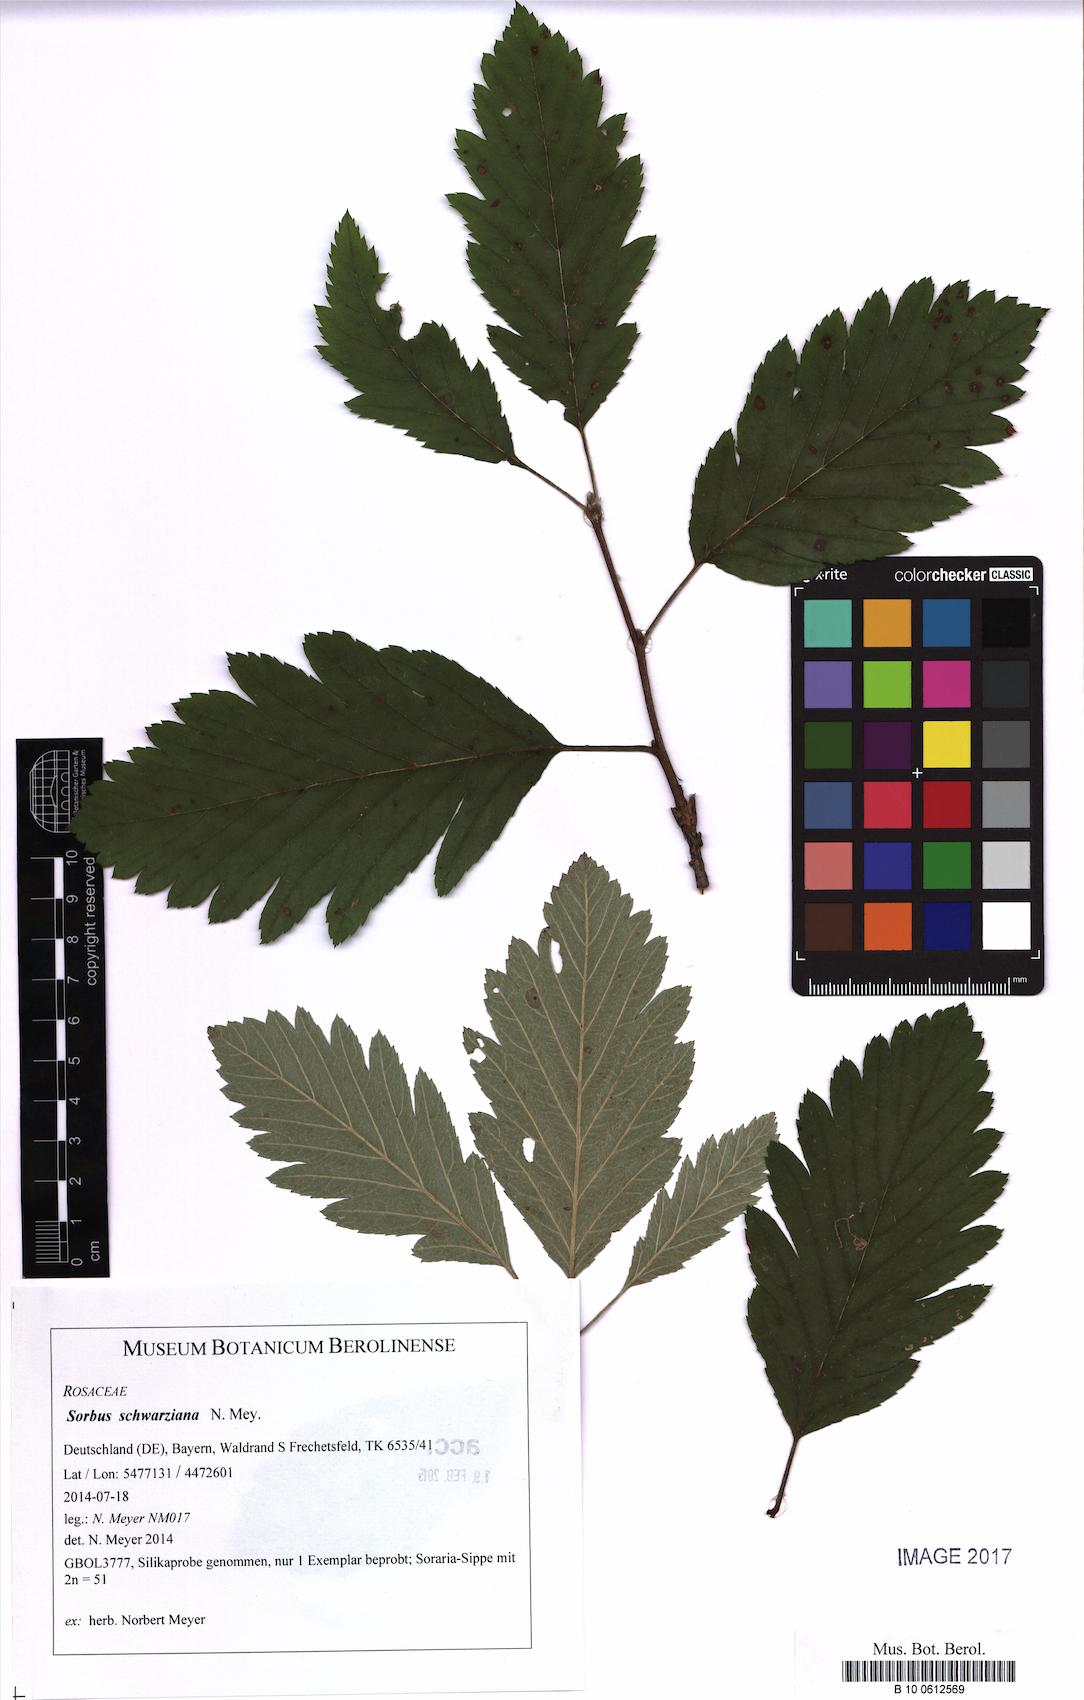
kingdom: Plantae
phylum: Tracheophyta
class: Magnoliopsida
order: Rosales
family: Rosaceae
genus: Hedlundia
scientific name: Hedlundia schwarziana
